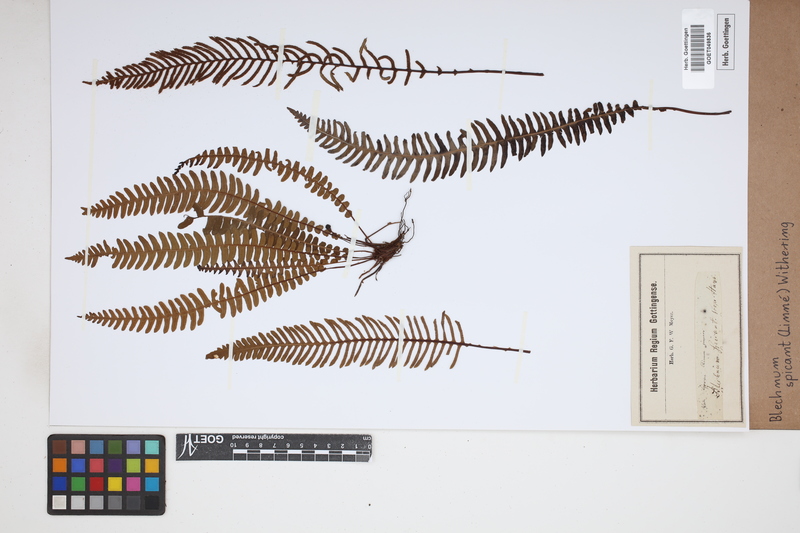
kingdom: Plantae
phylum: Tracheophyta
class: Polypodiopsida
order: Polypodiales
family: Blechnaceae
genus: Struthiopteris
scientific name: Struthiopteris spicant
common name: Deer fern
